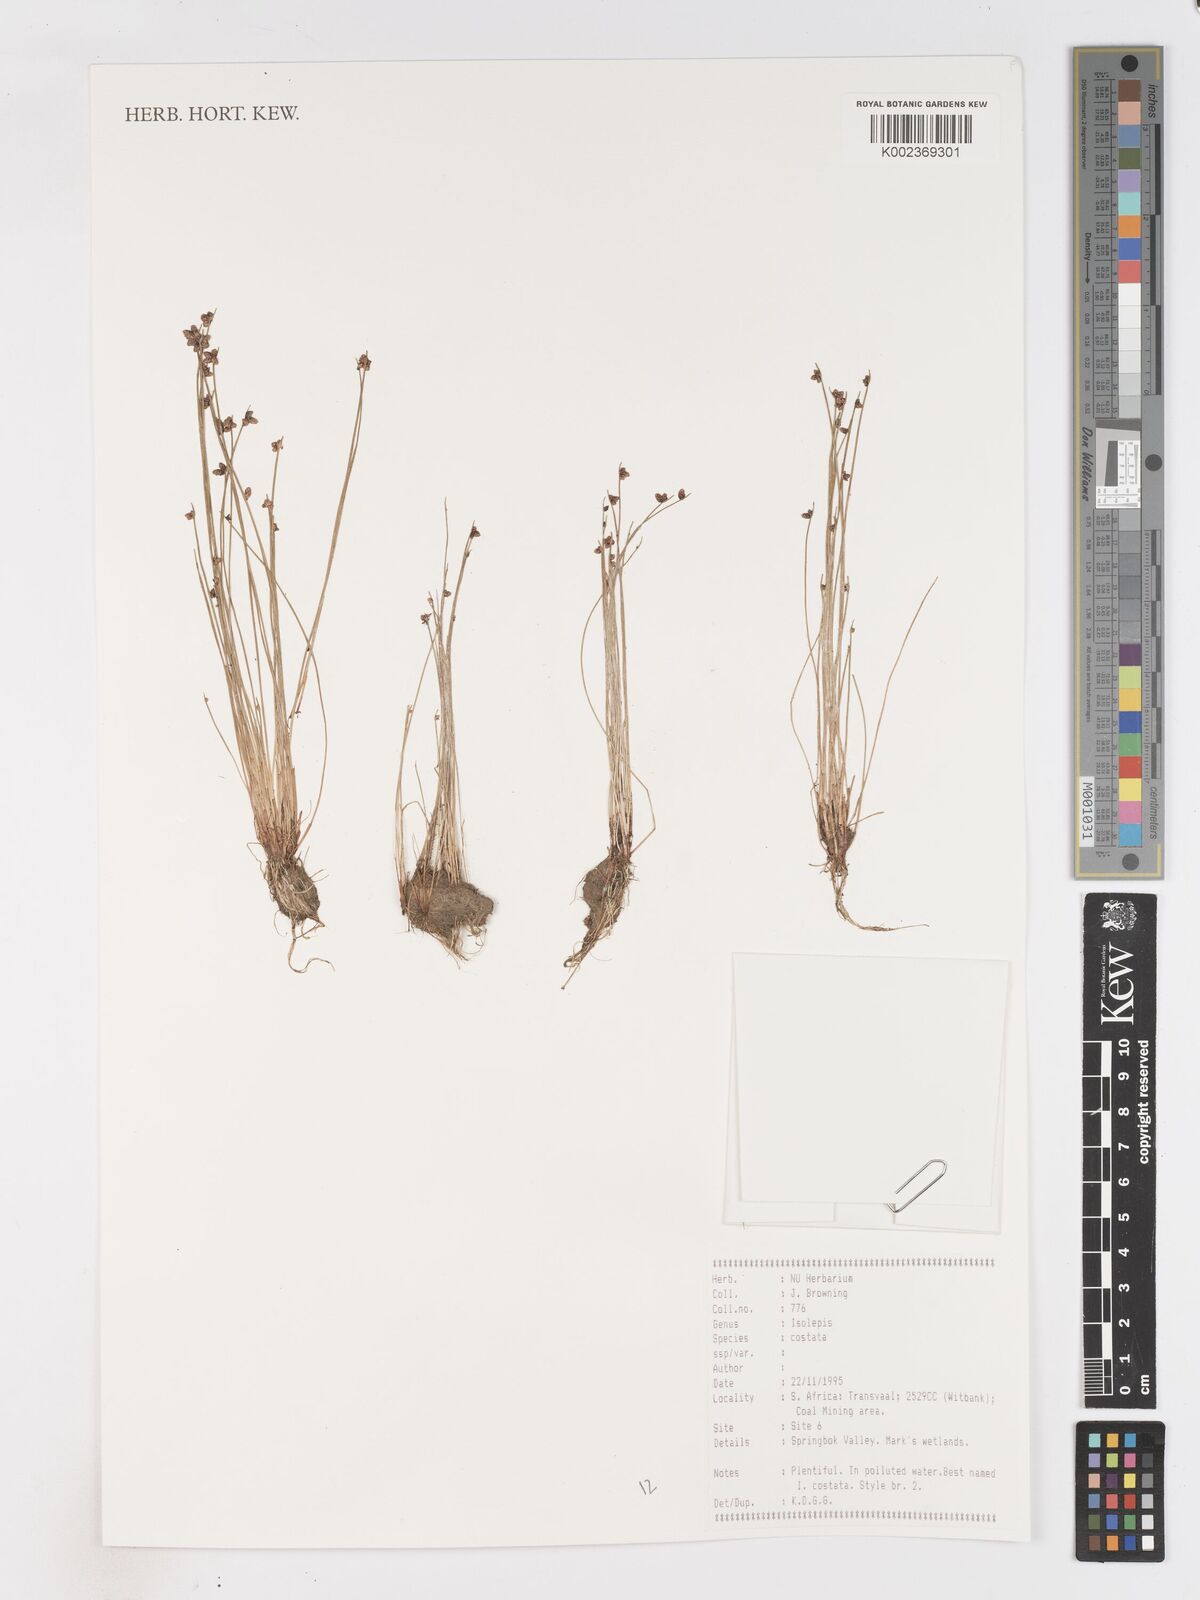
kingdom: Plantae
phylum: Tracheophyta
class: Liliopsida
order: Poales
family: Cyperaceae
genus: Isolepis
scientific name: Isolepis costata
